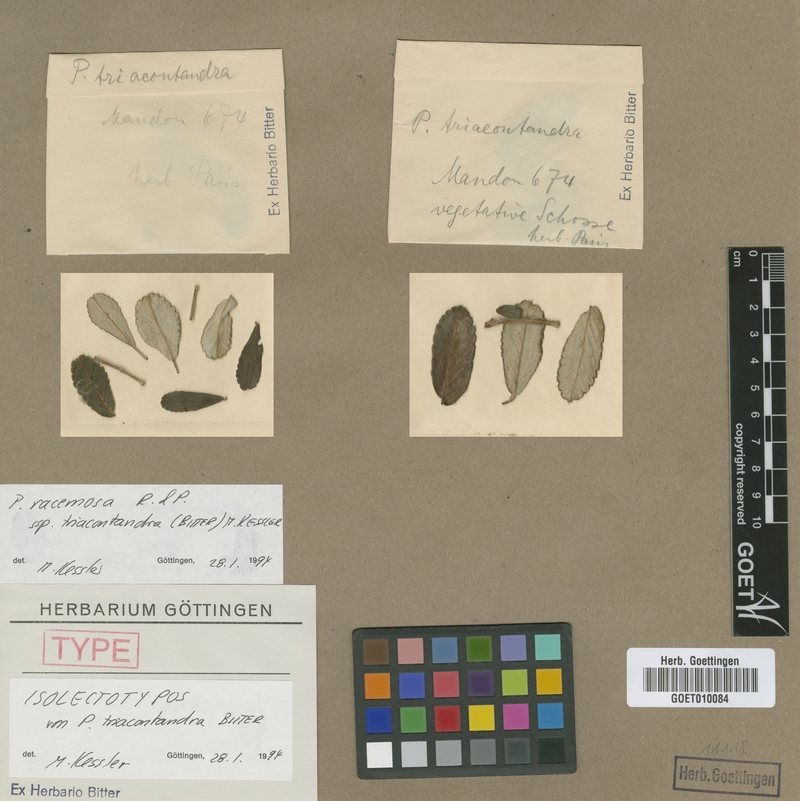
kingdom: Plantae
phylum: Tracheophyta
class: Magnoliopsida
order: Rosales
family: Rosaceae
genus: Polylepis
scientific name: Polylepis triacontandra
